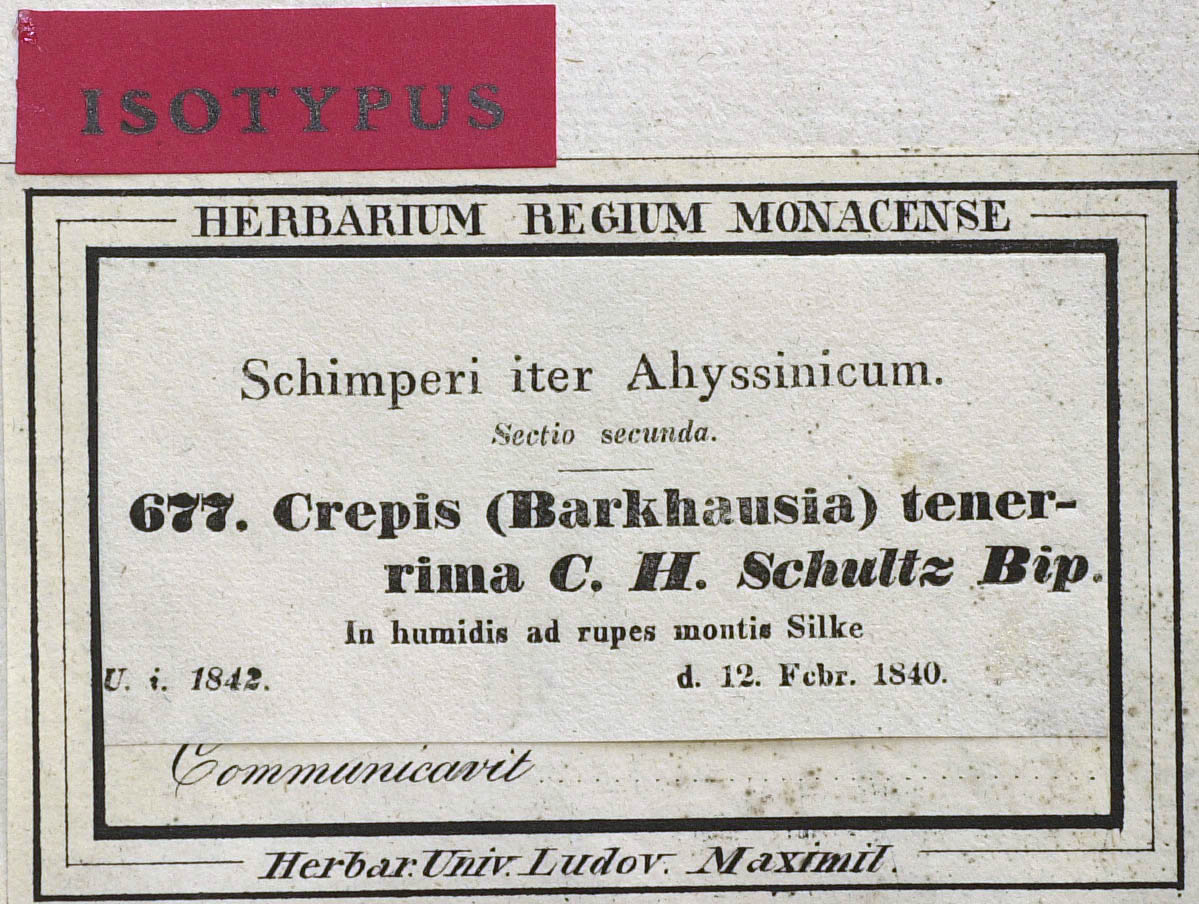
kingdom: Plantae
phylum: Tracheophyta
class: Magnoliopsida
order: Asterales
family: Asteraceae
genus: Crepis
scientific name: Crepis carbonaria
